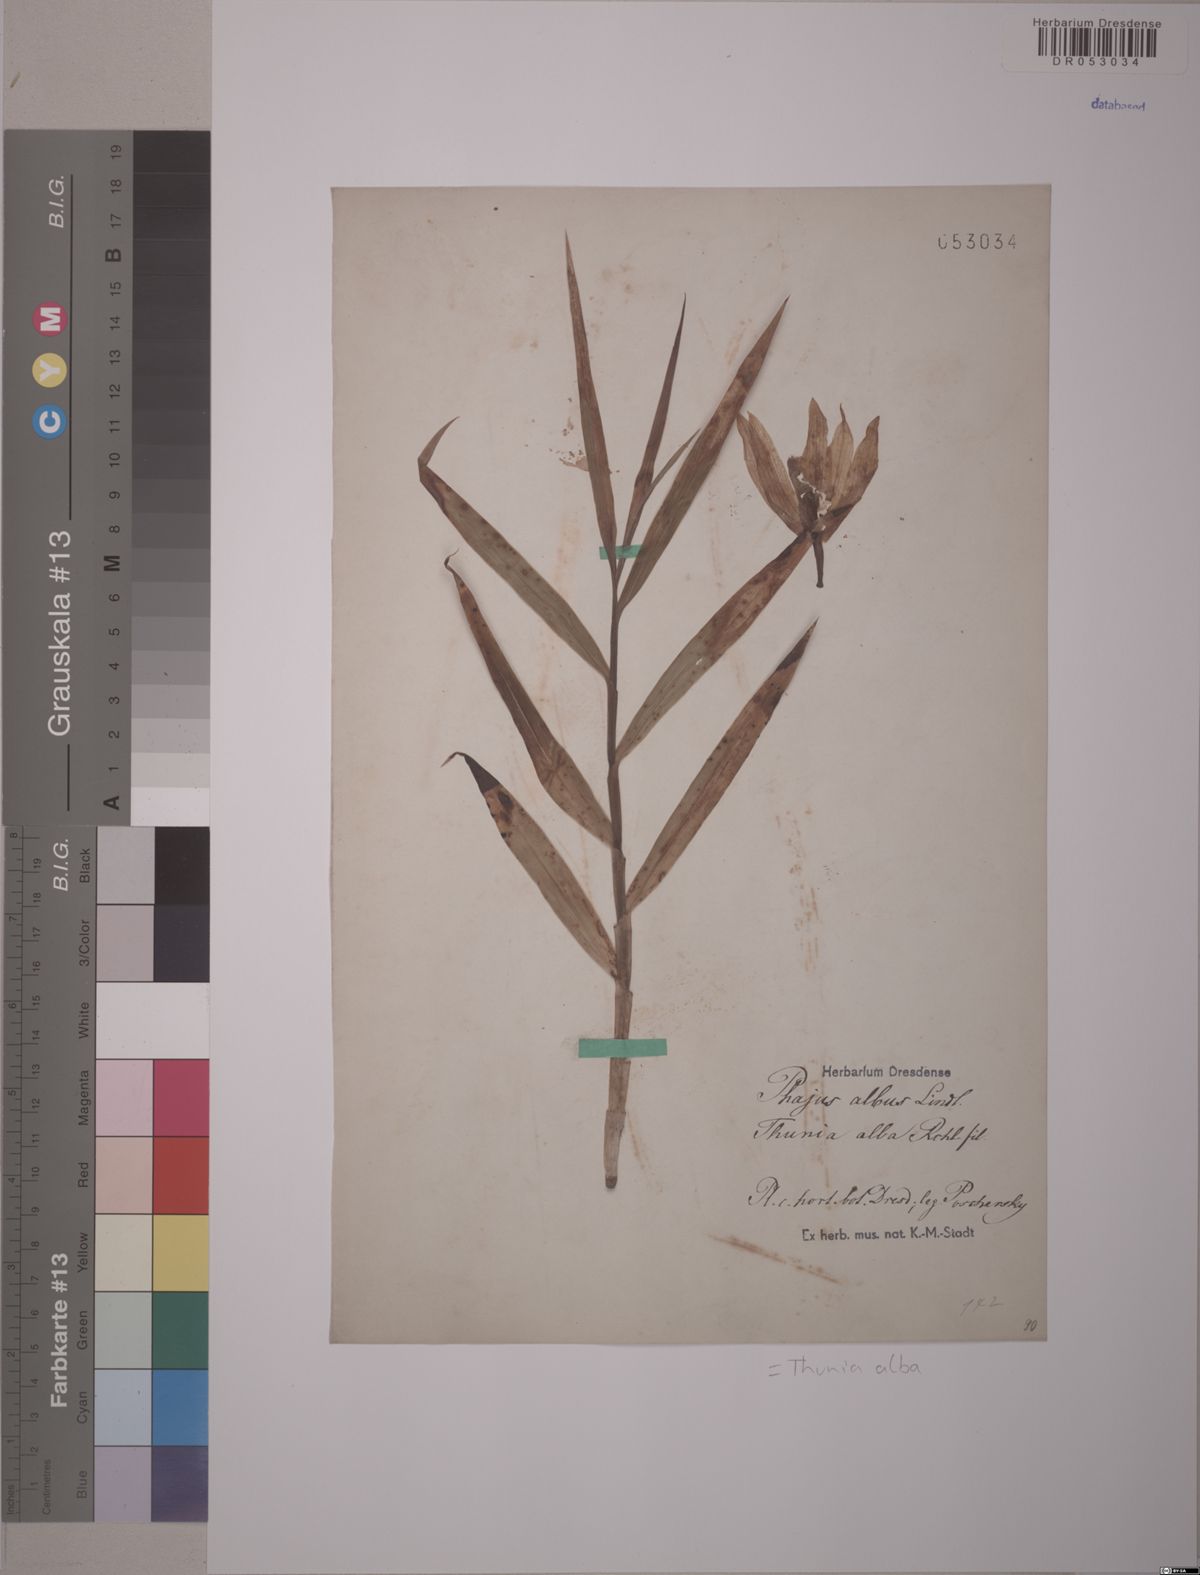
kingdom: Plantae
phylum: Tracheophyta
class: Liliopsida
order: Asparagales
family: Orchidaceae
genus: Thunia
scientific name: Thunia alba
